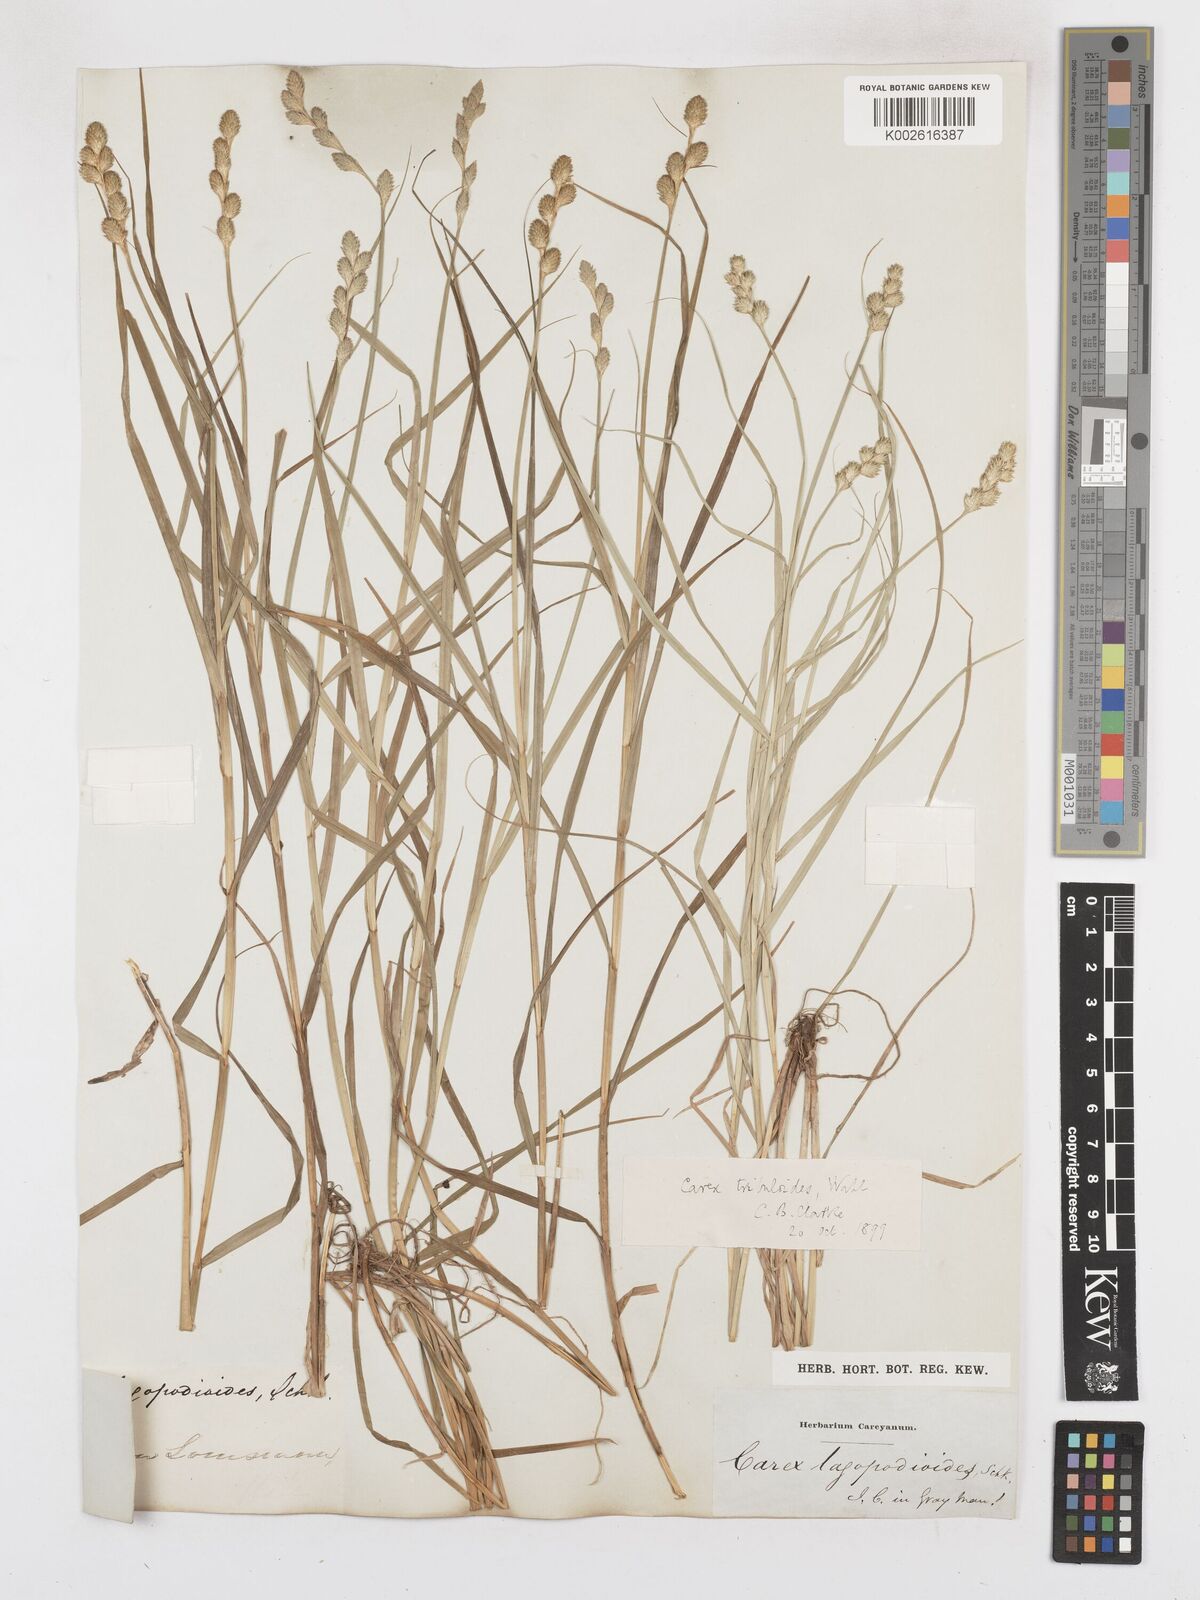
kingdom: Plantae
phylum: Tracheophyta
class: Liliopsida
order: Poales
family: Cyperaceae
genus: Carex
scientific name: Carex tribuloides
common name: Blunt broom sedge
